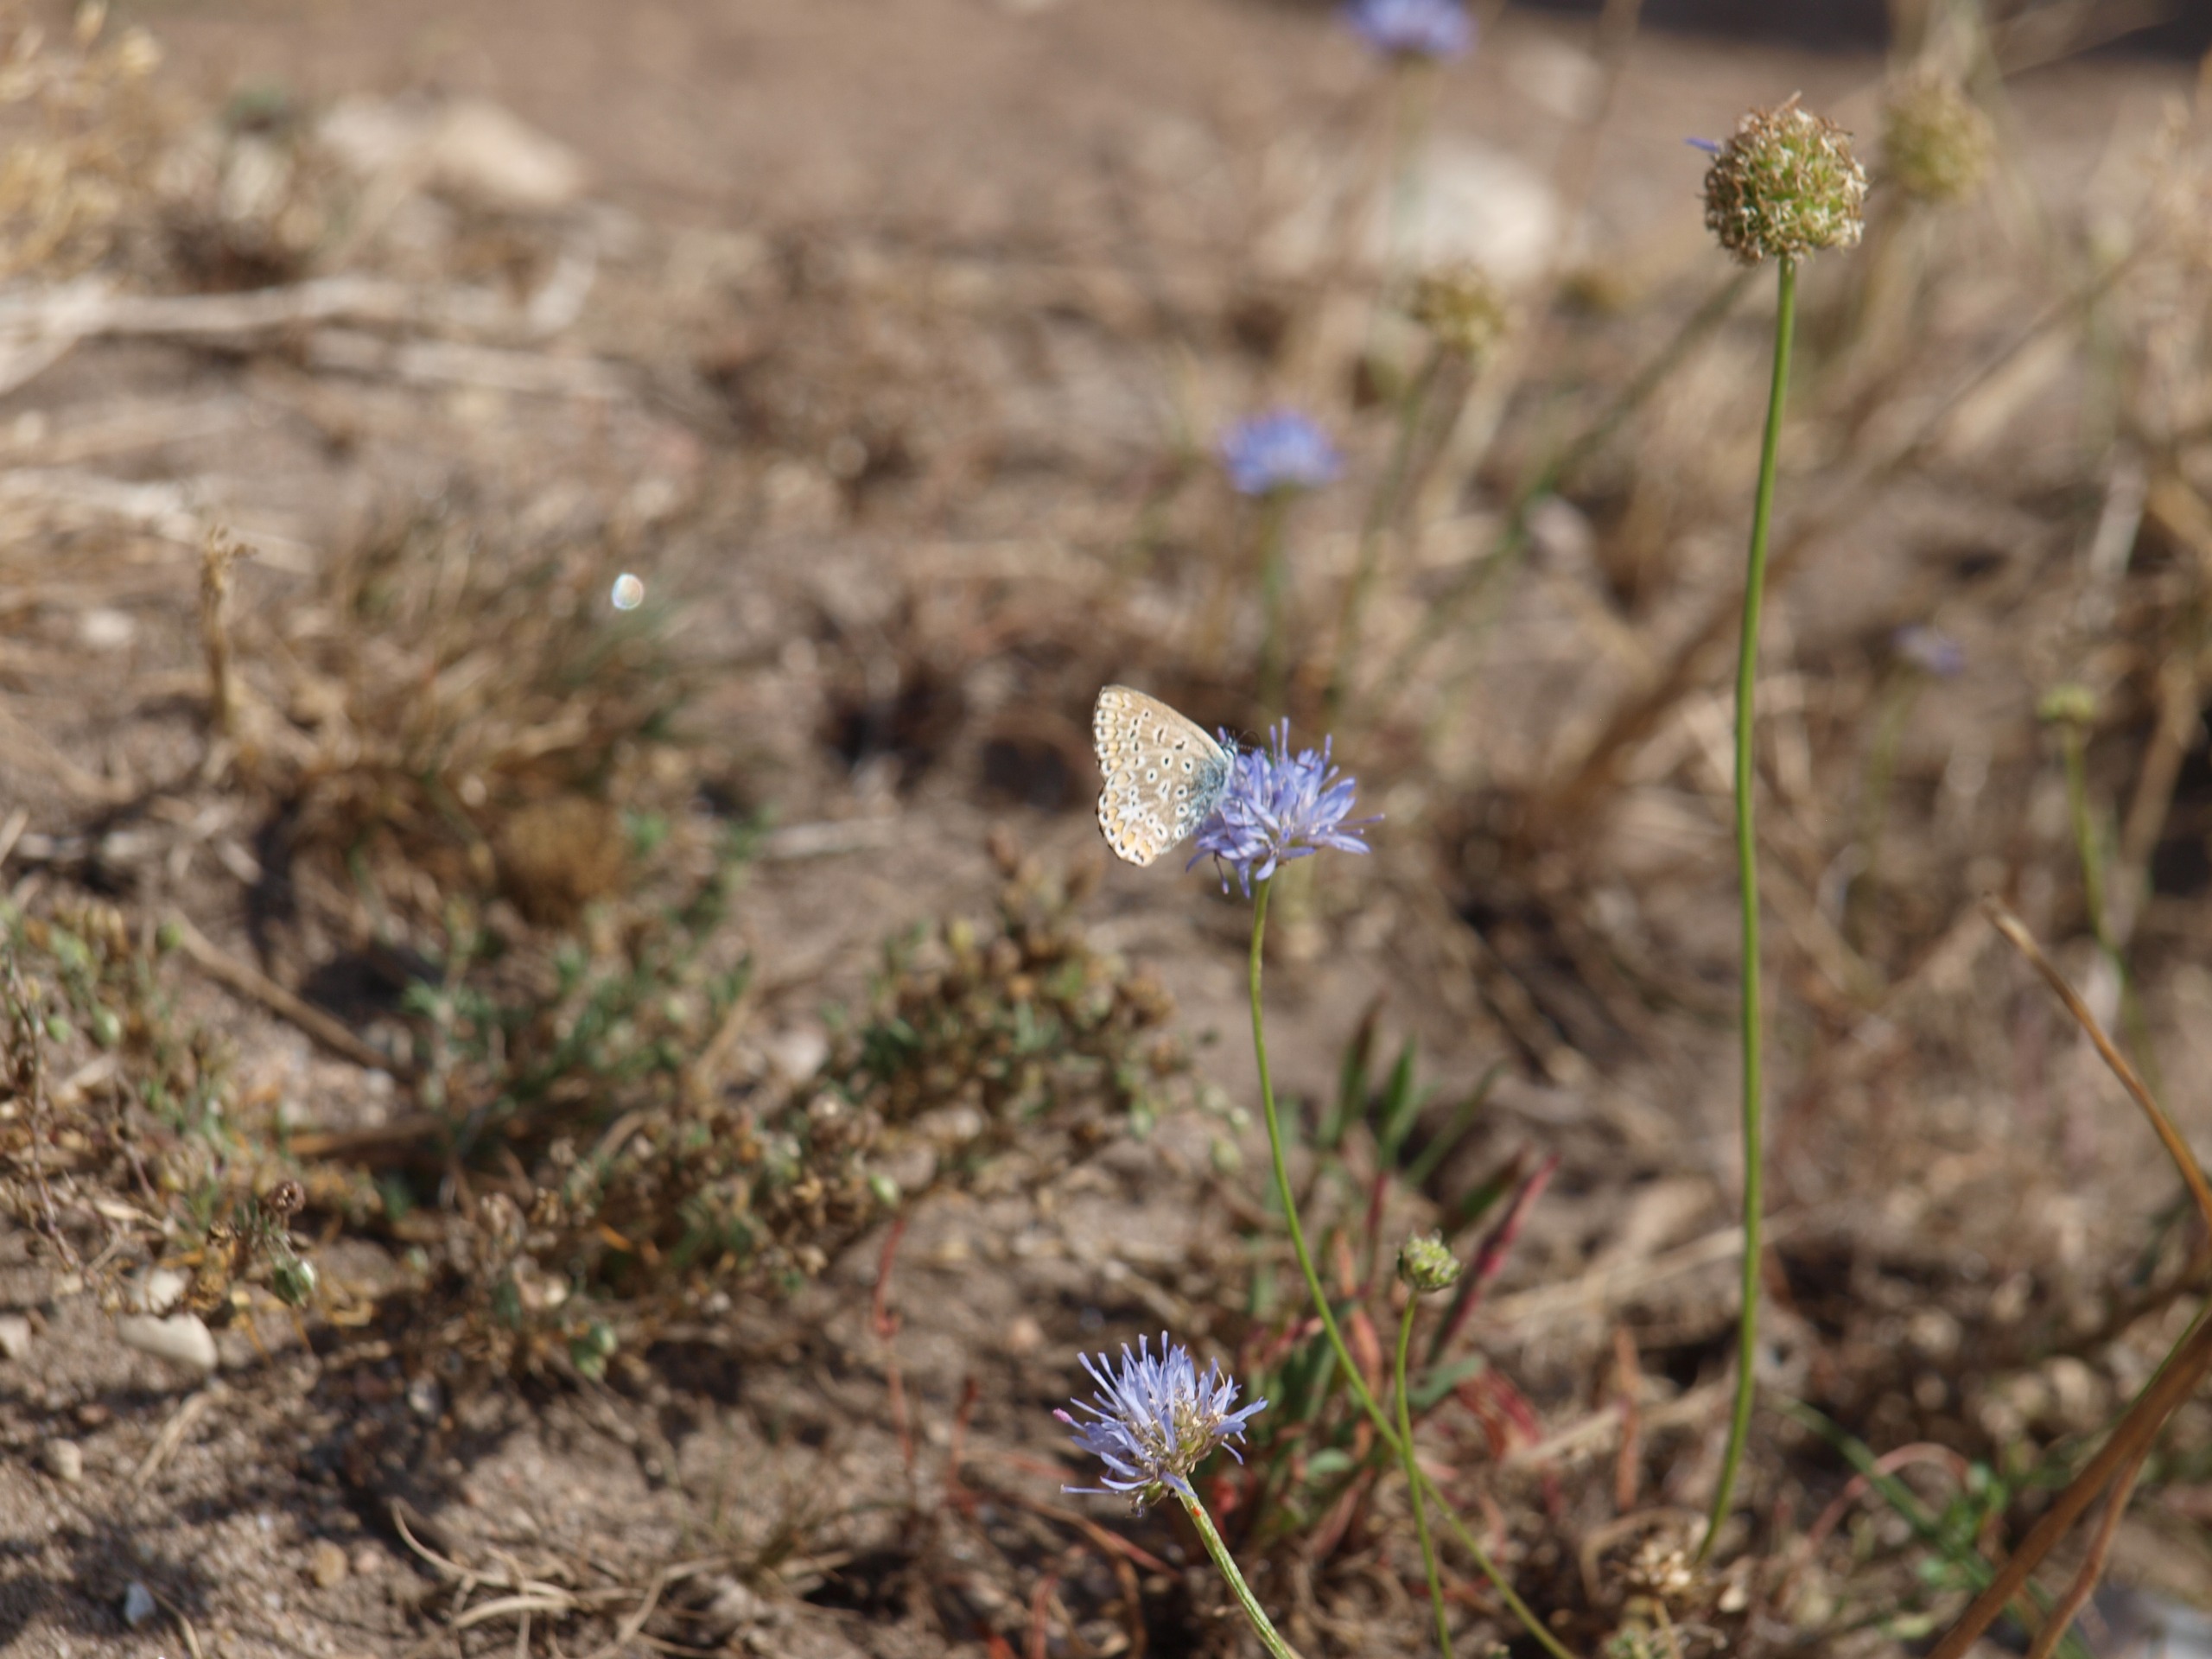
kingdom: Animalia
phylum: Arthropoda
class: Insecta
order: Lepidoptera
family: Lycaenidae
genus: Polyommatus
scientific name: Polyommatus icarus
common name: Almindelig blåfugl
